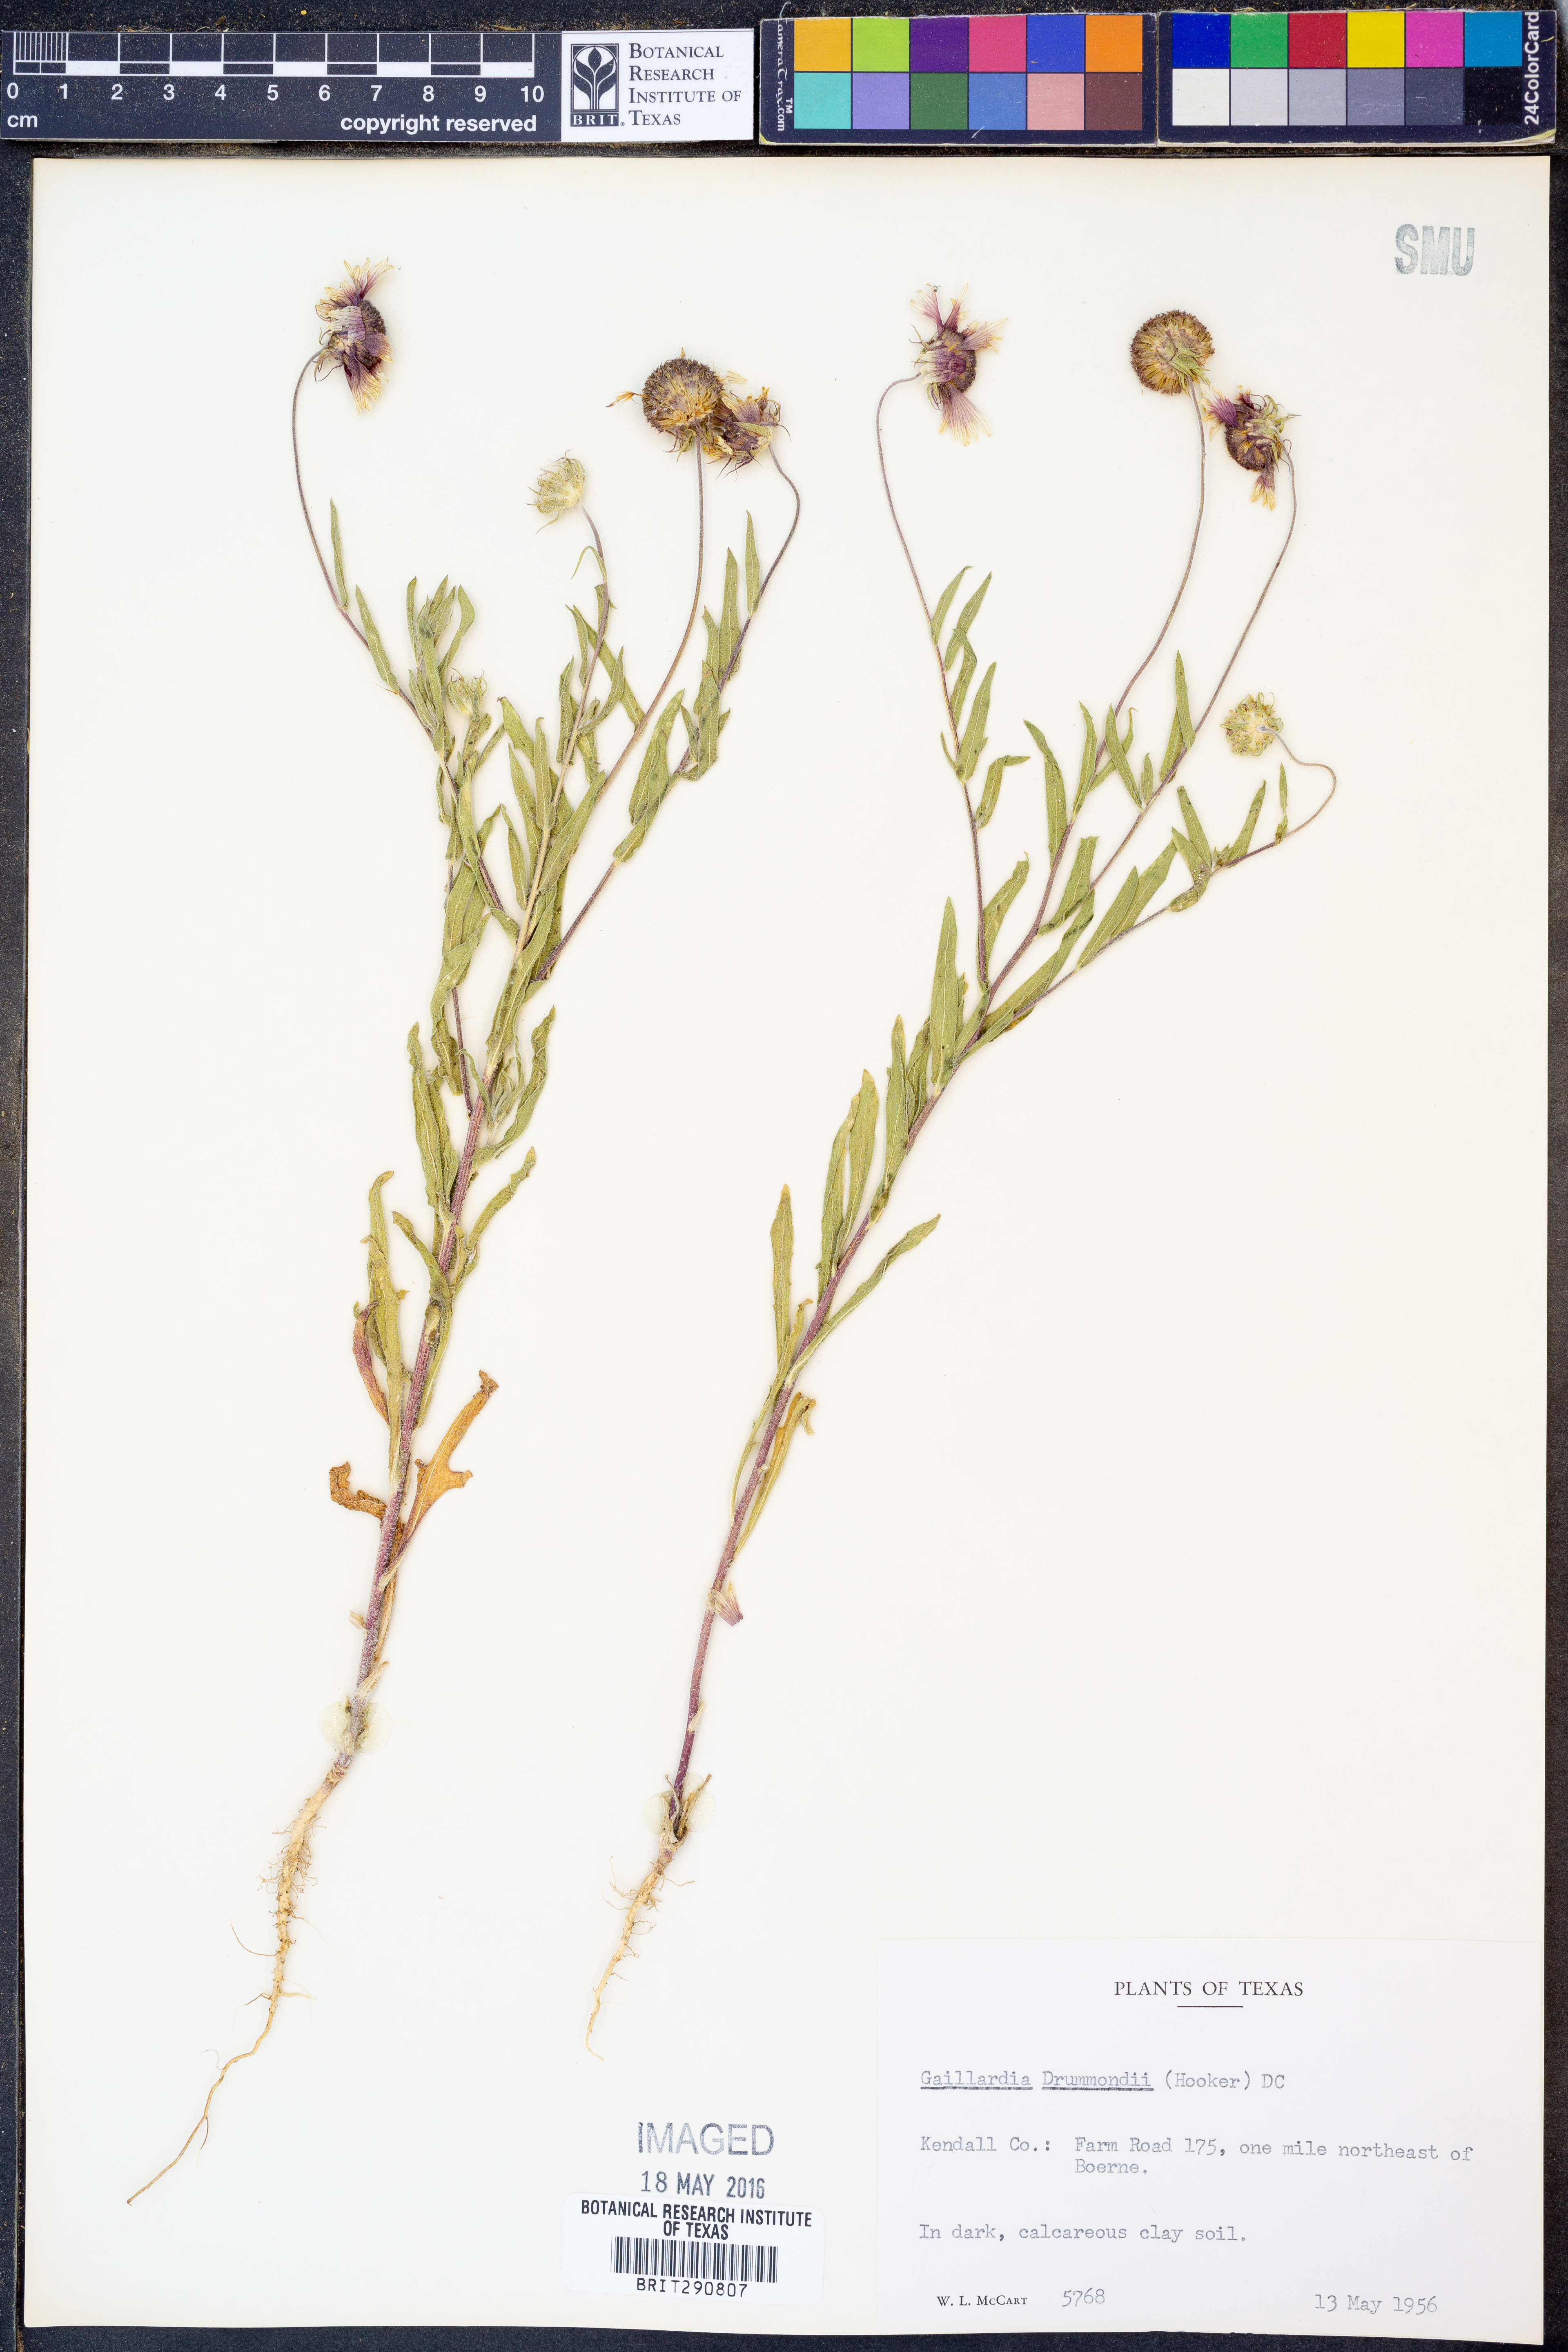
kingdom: Plantae
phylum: Tracheophyta
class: Magnoliopsida
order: Asterales
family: Asteraceae
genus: Gaillardia
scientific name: Gaillardia pulchella
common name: Firewheel
